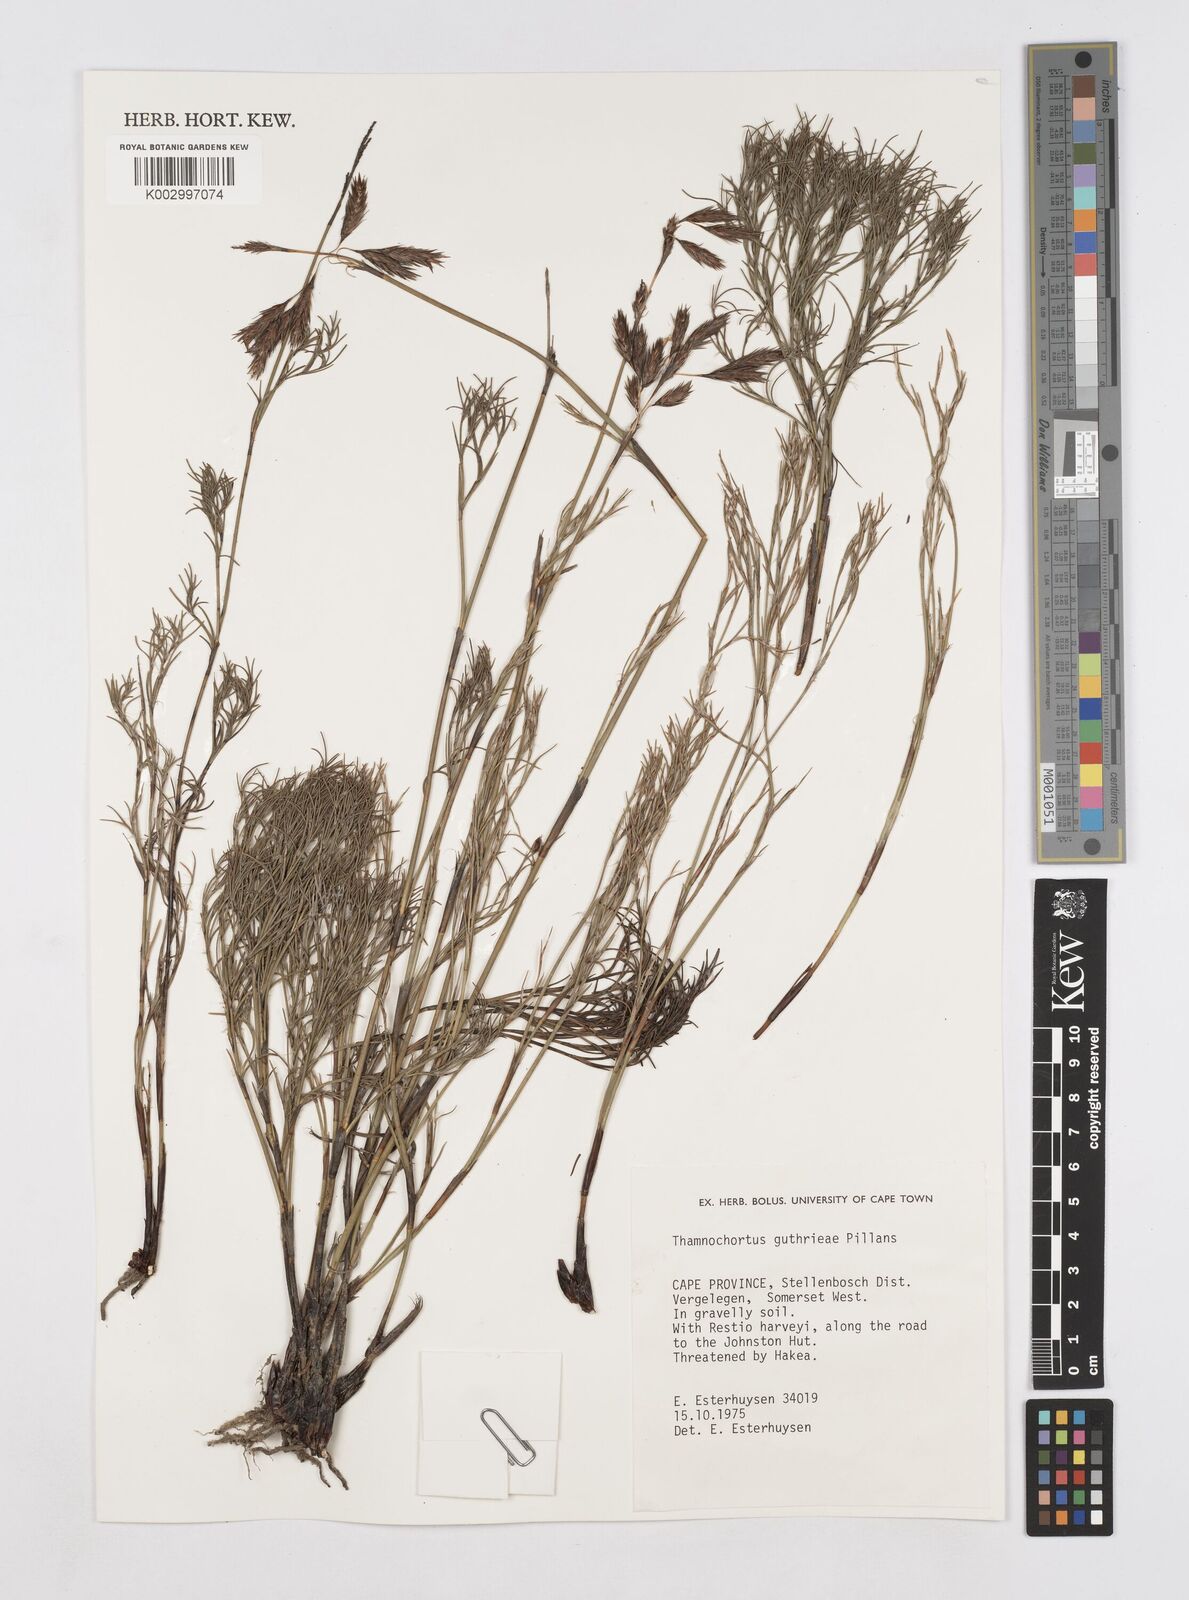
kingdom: Plantae
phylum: Tracheophyta
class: Liliopsida
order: Poales
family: Restionaceae
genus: Thamnochortus
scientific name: Thamnochortus guthrieae
